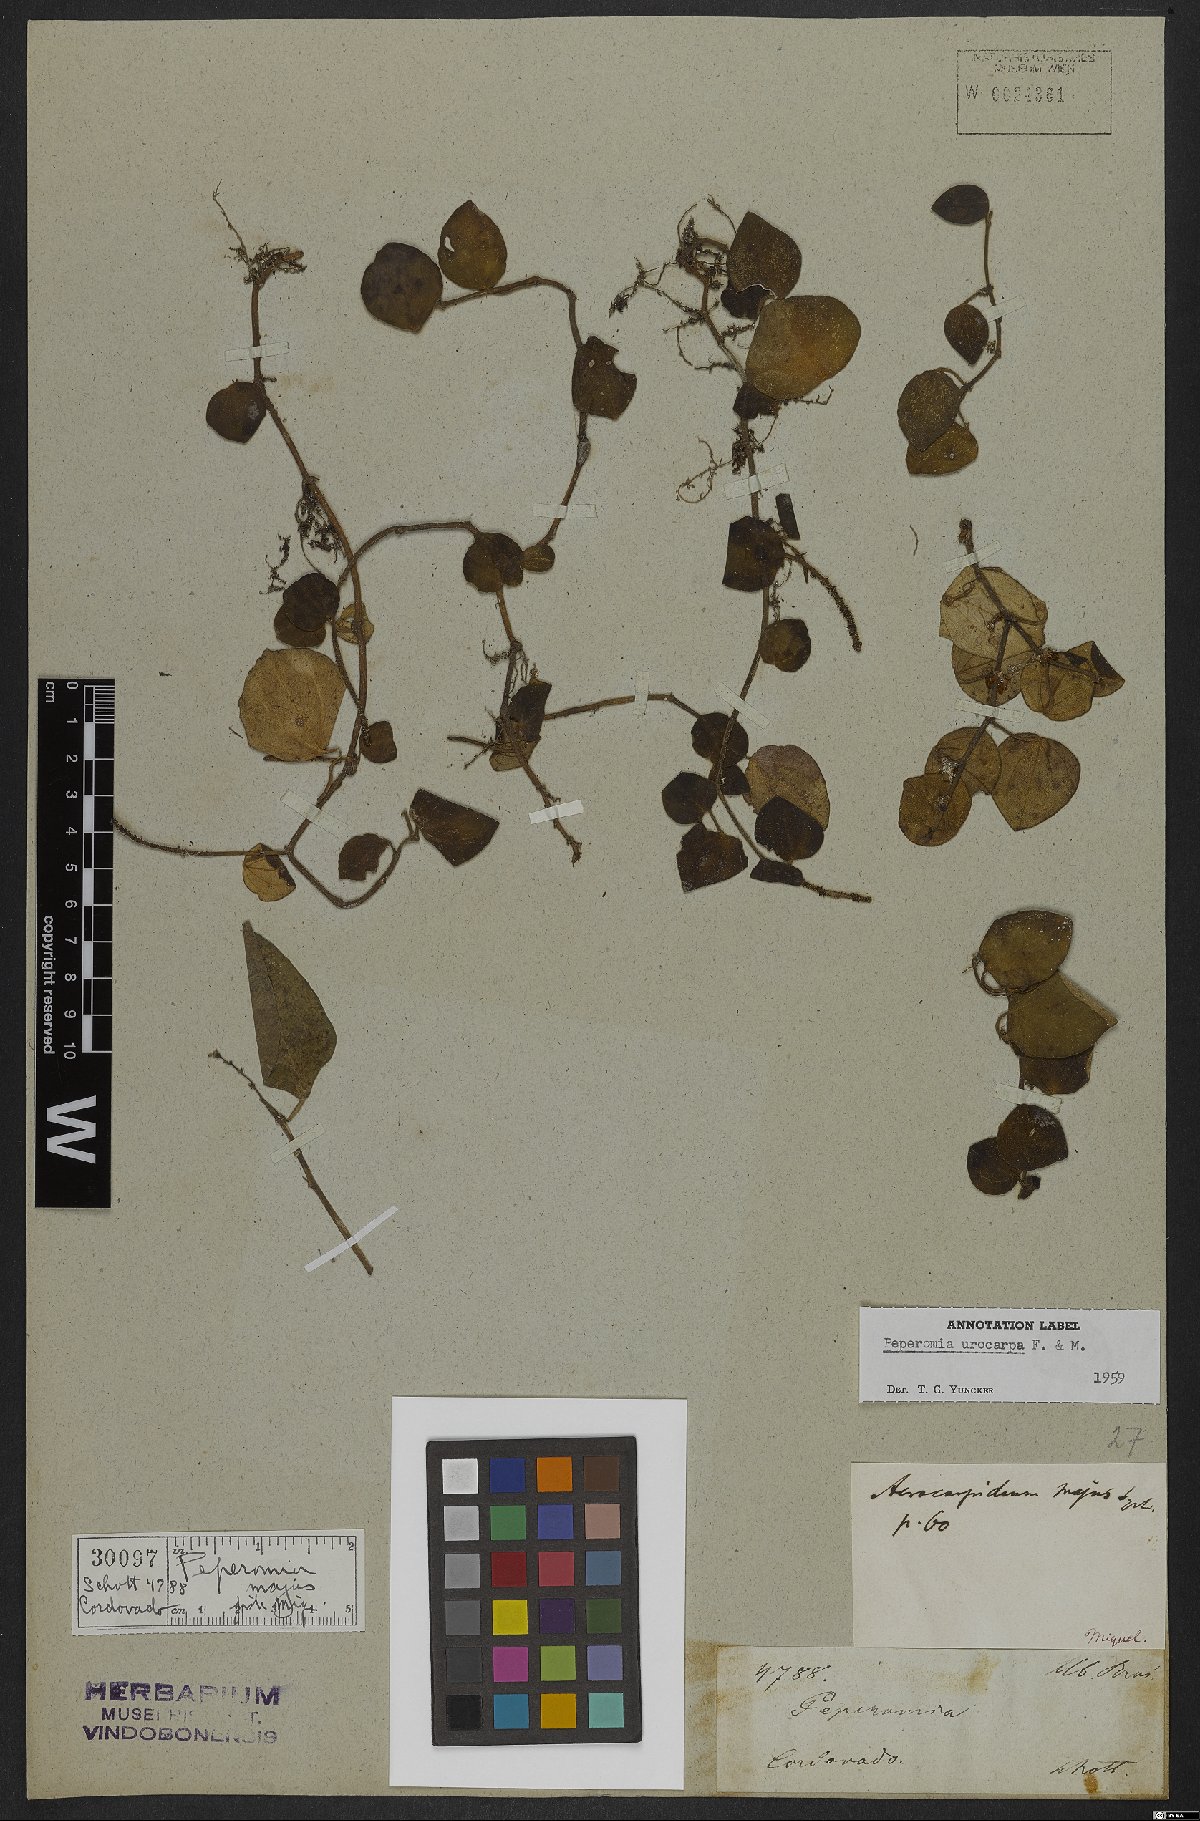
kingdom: Plantae
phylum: Tracheophyta
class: Magnoliopsida
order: Piperales
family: Piperaceae
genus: Peperomia
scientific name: Peperomia urocarpa
